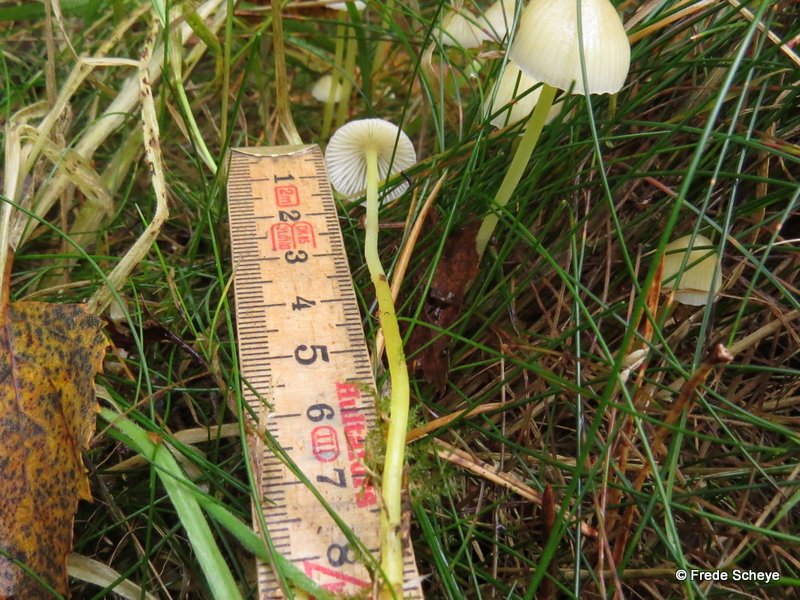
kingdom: Fungi
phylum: Basidiomycota
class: Agaricomycetes
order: Agaricales
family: Mycenaceae
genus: Mycena
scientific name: Mycena epipterygia
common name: gulstokket huesvamp
